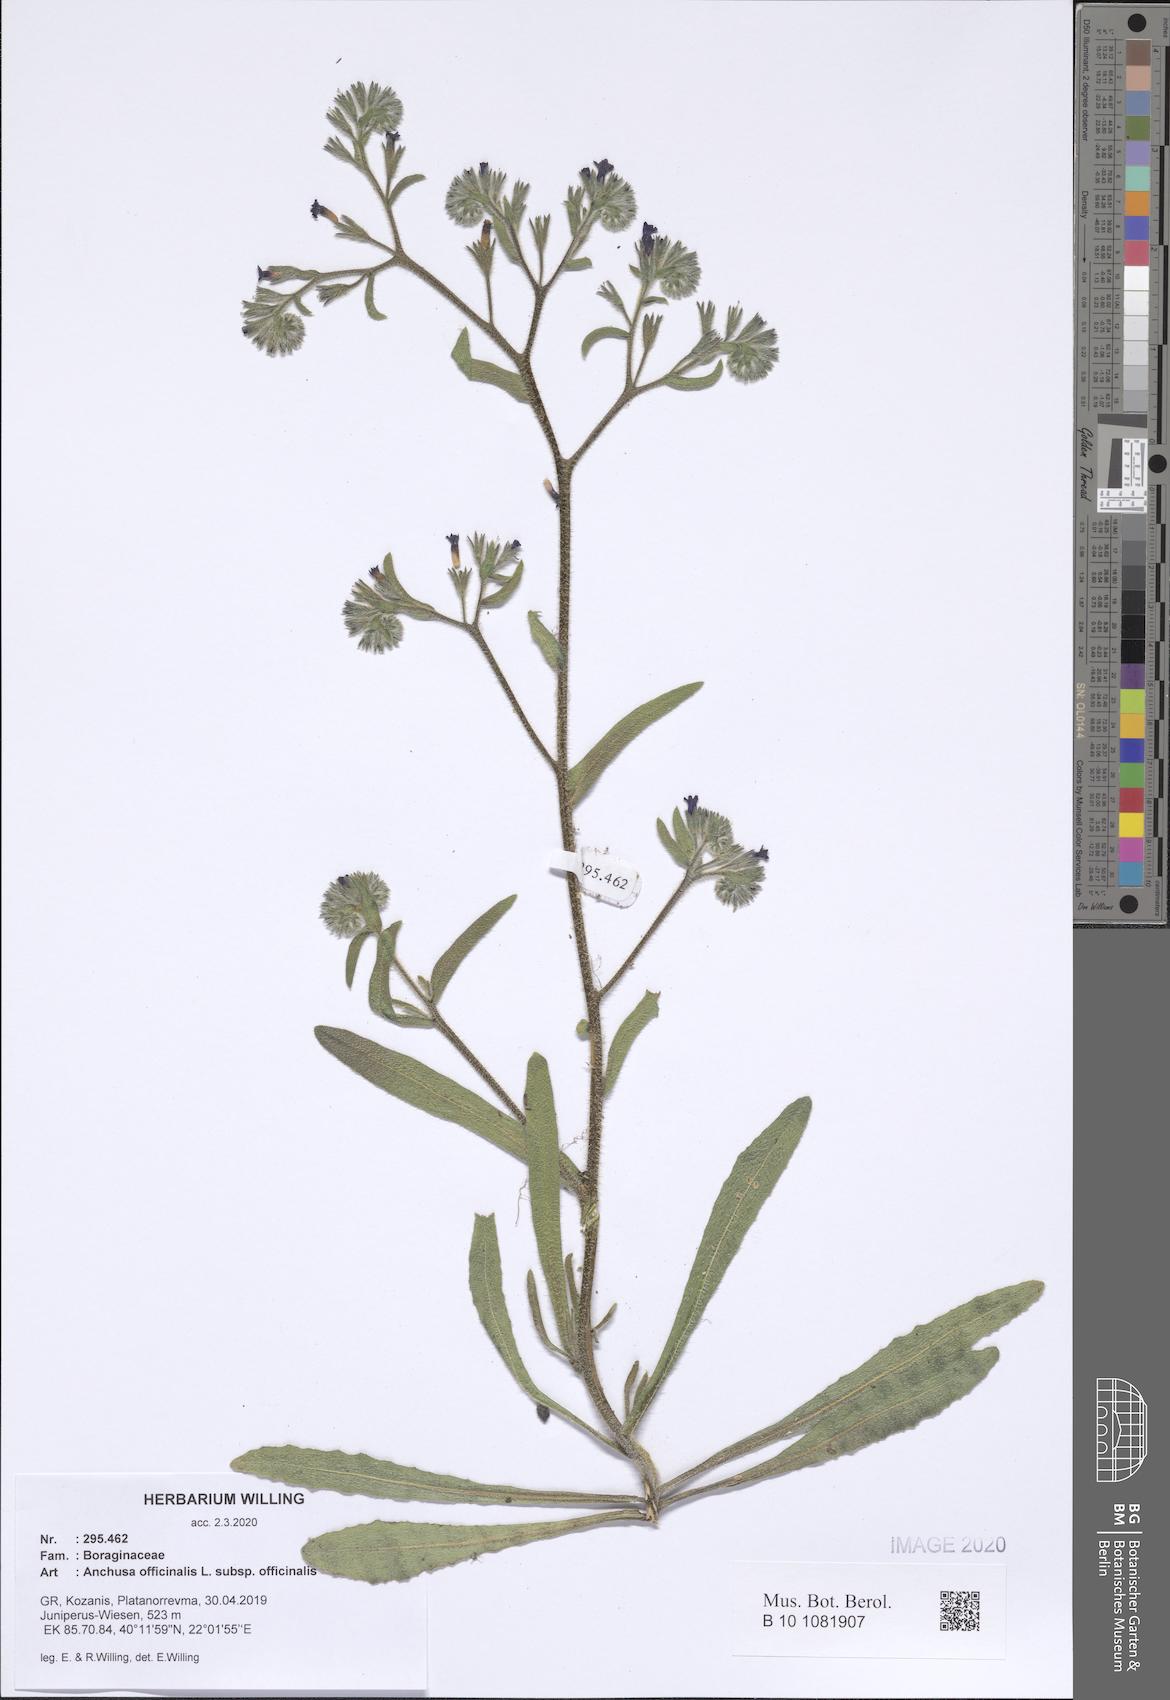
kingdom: Plantae
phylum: Tracheophyta
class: Magnoliopsida
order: Boraginales
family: Boraginaceae
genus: Anchusa
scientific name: Anchusa officinalis
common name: Alkanet
